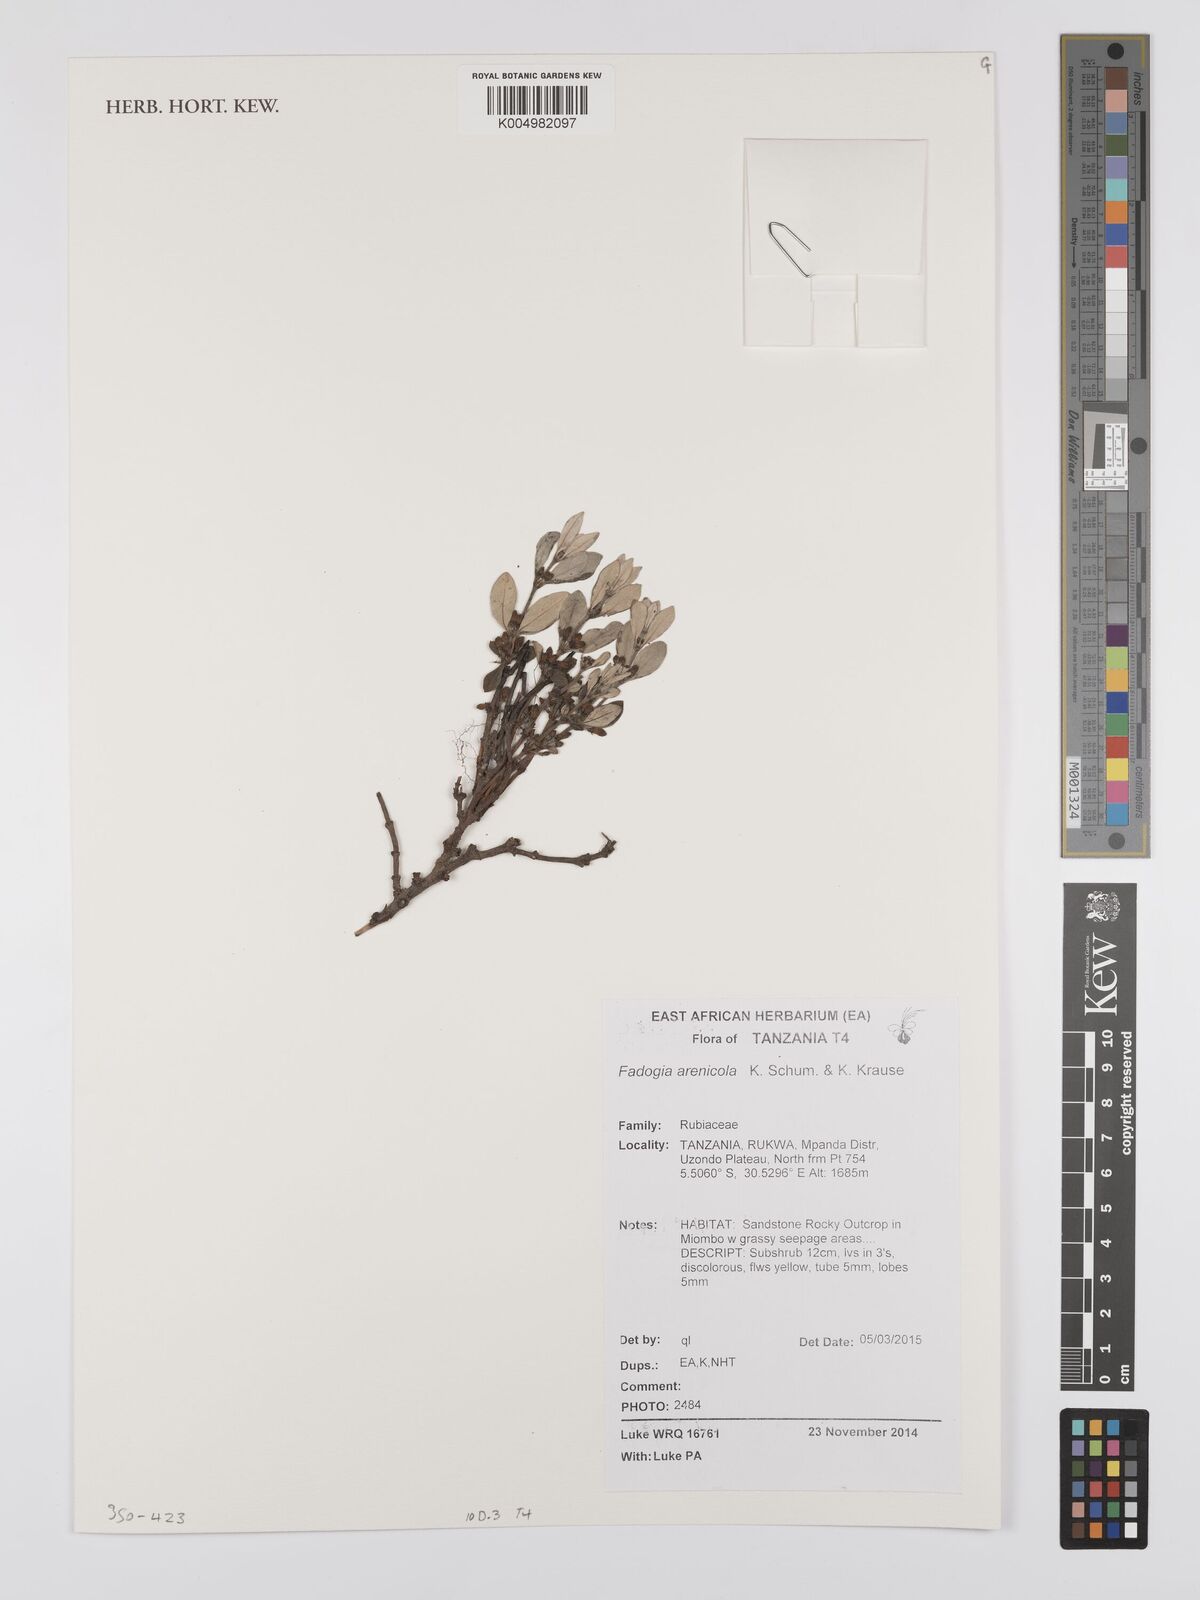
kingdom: Plantae
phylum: Tracheophyta
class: Magnoliopsida
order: Gentianales
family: Rubiaceae
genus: Fadogia
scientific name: Fadogia arenicola
